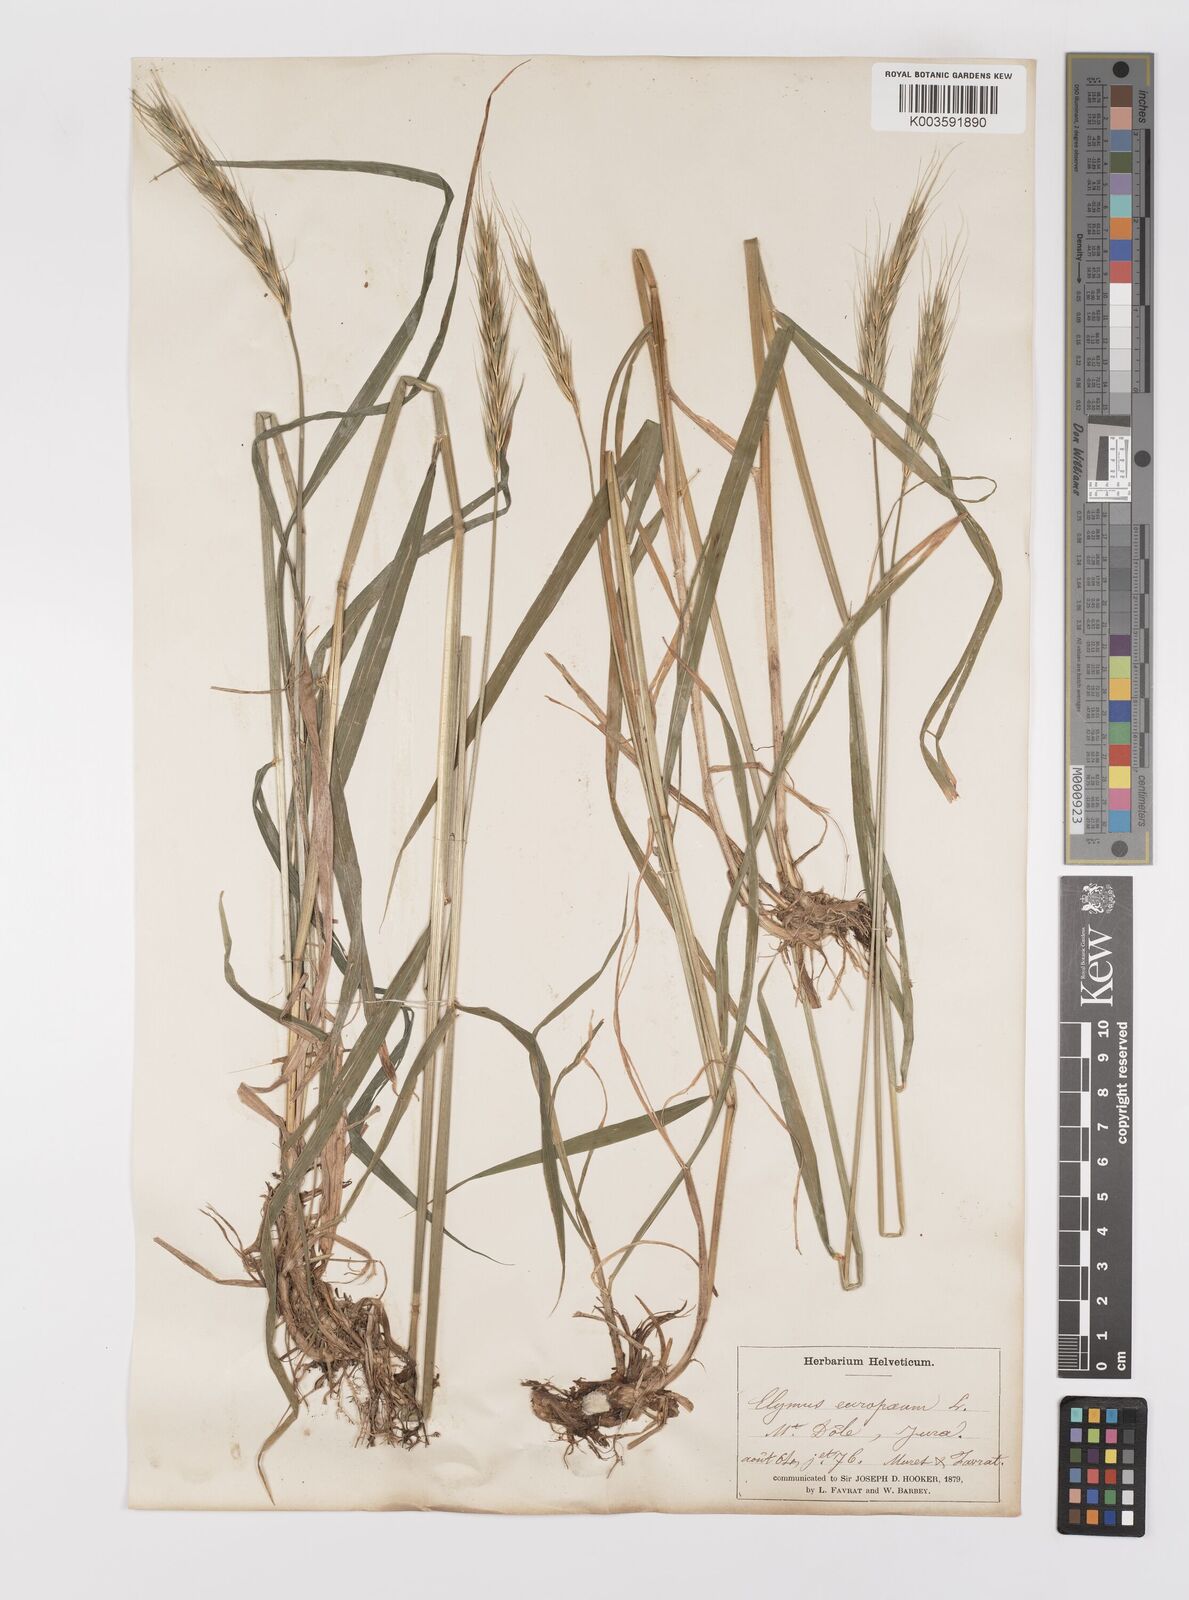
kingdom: Plantae
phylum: Tracheophyta
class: Liliopsida
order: Poales
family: Poaceae
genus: Hordelymus
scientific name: Hordelymus europaeus
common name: Wood-barley
